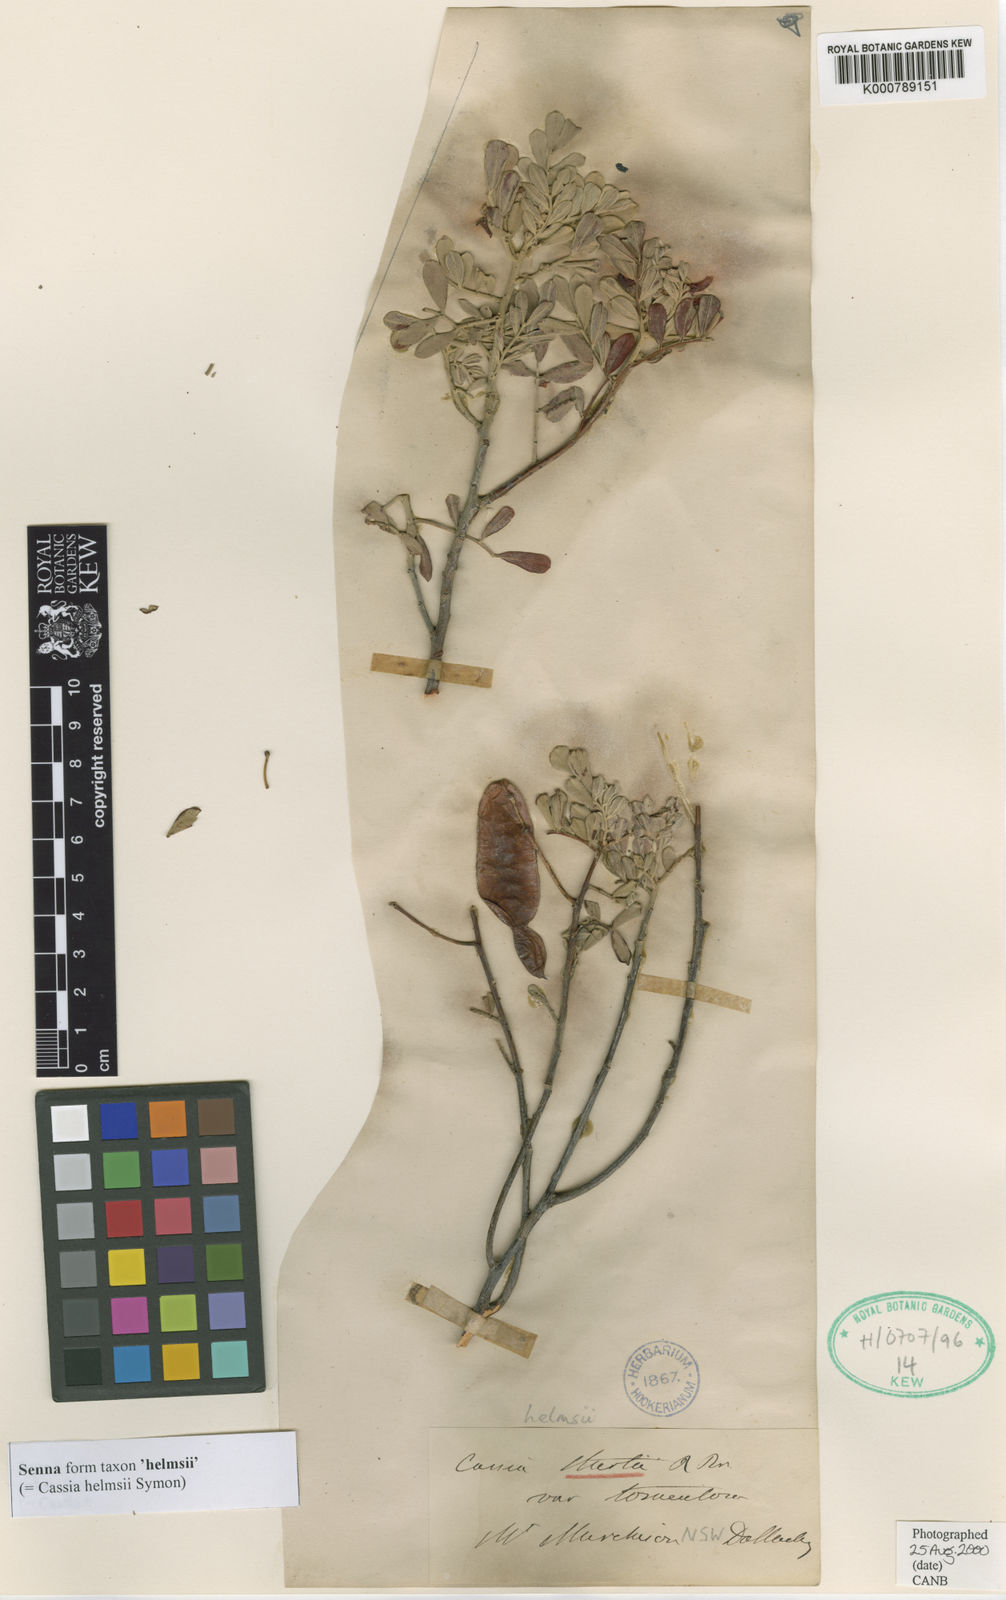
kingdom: Plantae
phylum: Tracheophyta
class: Magnoliopsida
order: Fabales
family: Fabaceae
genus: Senna
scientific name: Senna
